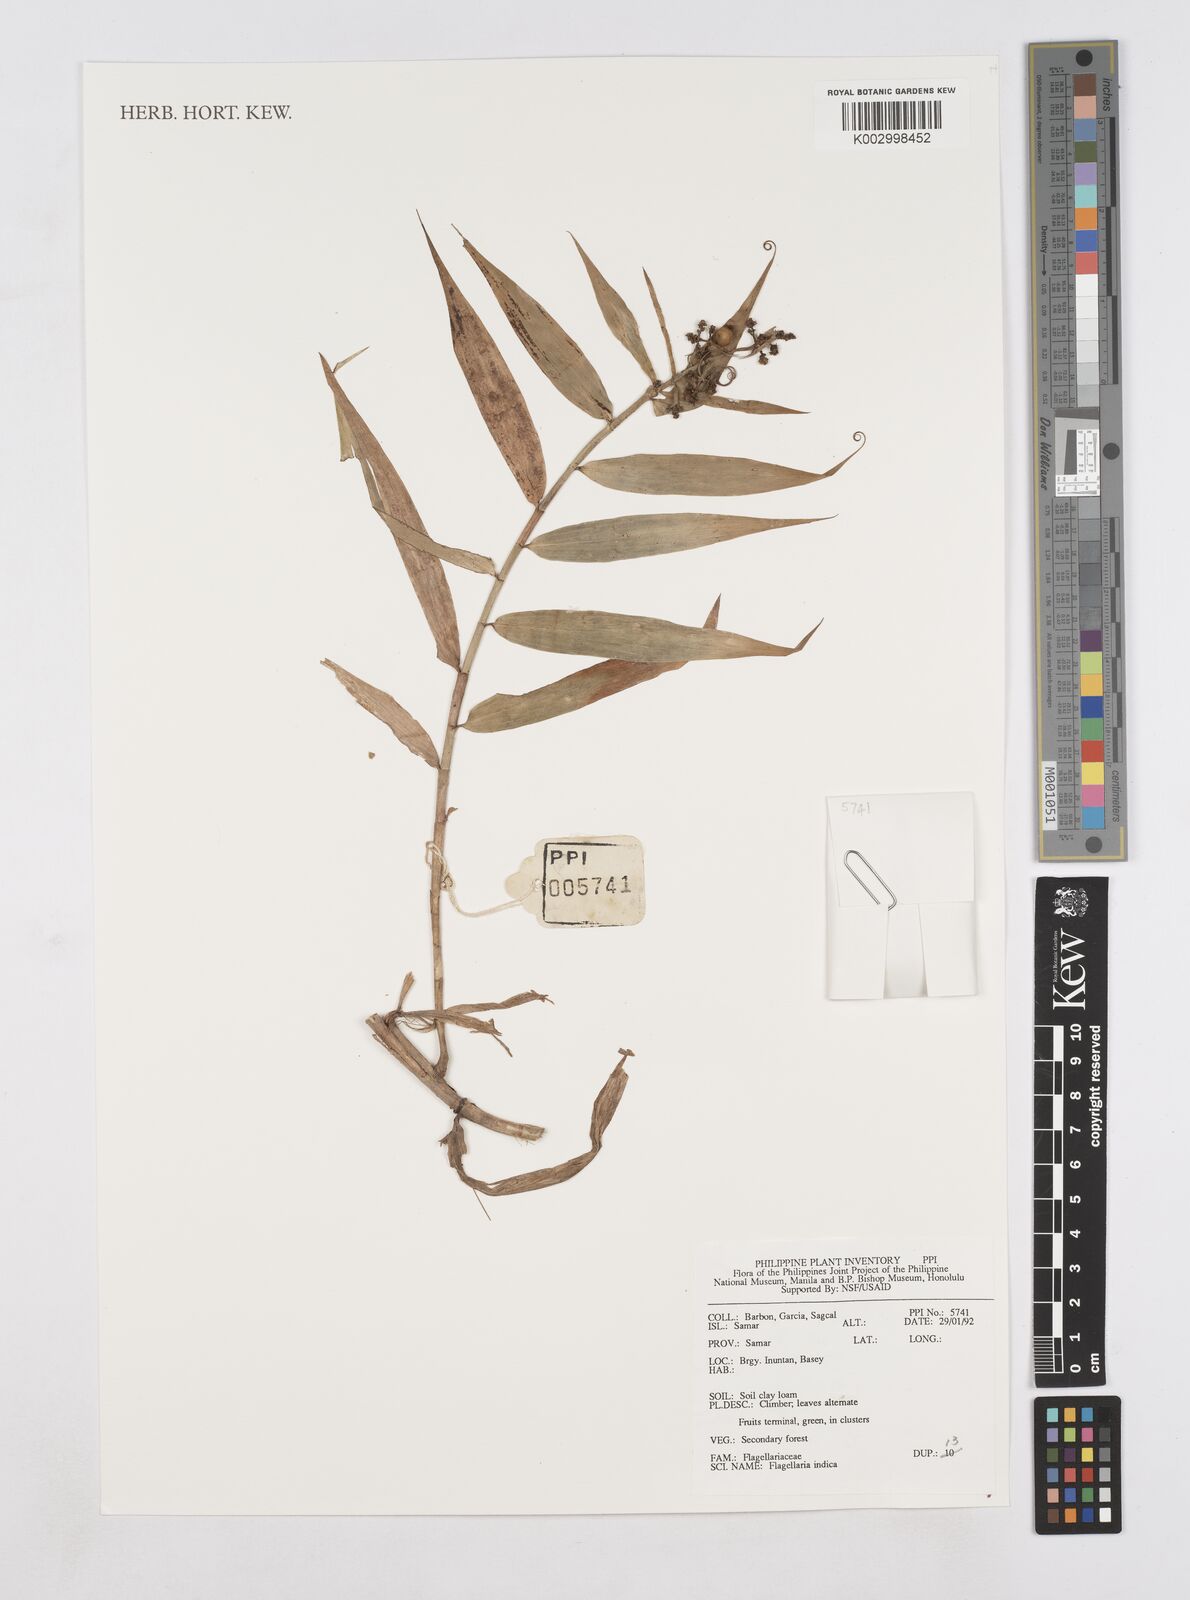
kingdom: Plantae
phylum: Tracheophyta
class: Liliopsida
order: Poales
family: Flagellariaceae
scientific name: Flagellariaceae
